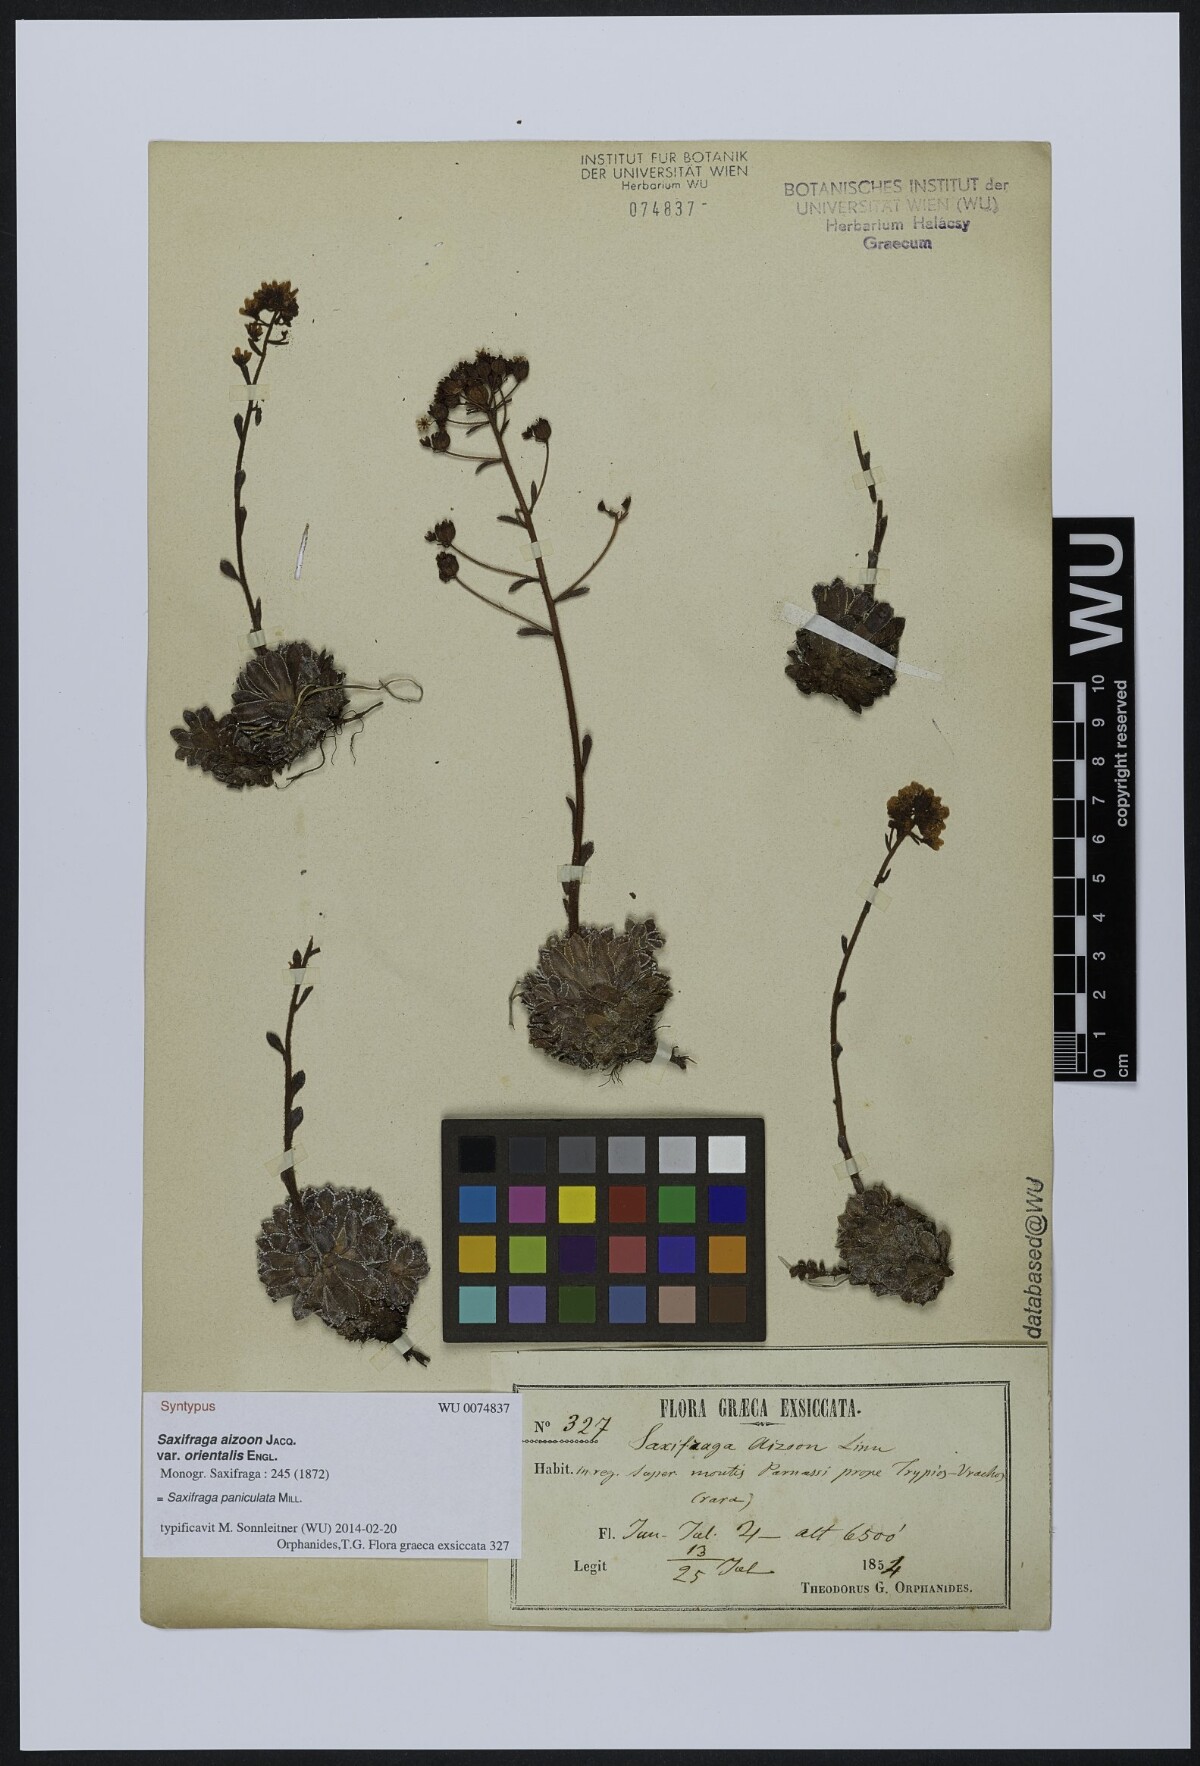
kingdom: Plantae
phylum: Tracheophyta
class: Magnoliopsida
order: Saxifragales
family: Saxifragaceae
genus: Saxifraga
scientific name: Saxifraga paniculata
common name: Livelong saxifrage
